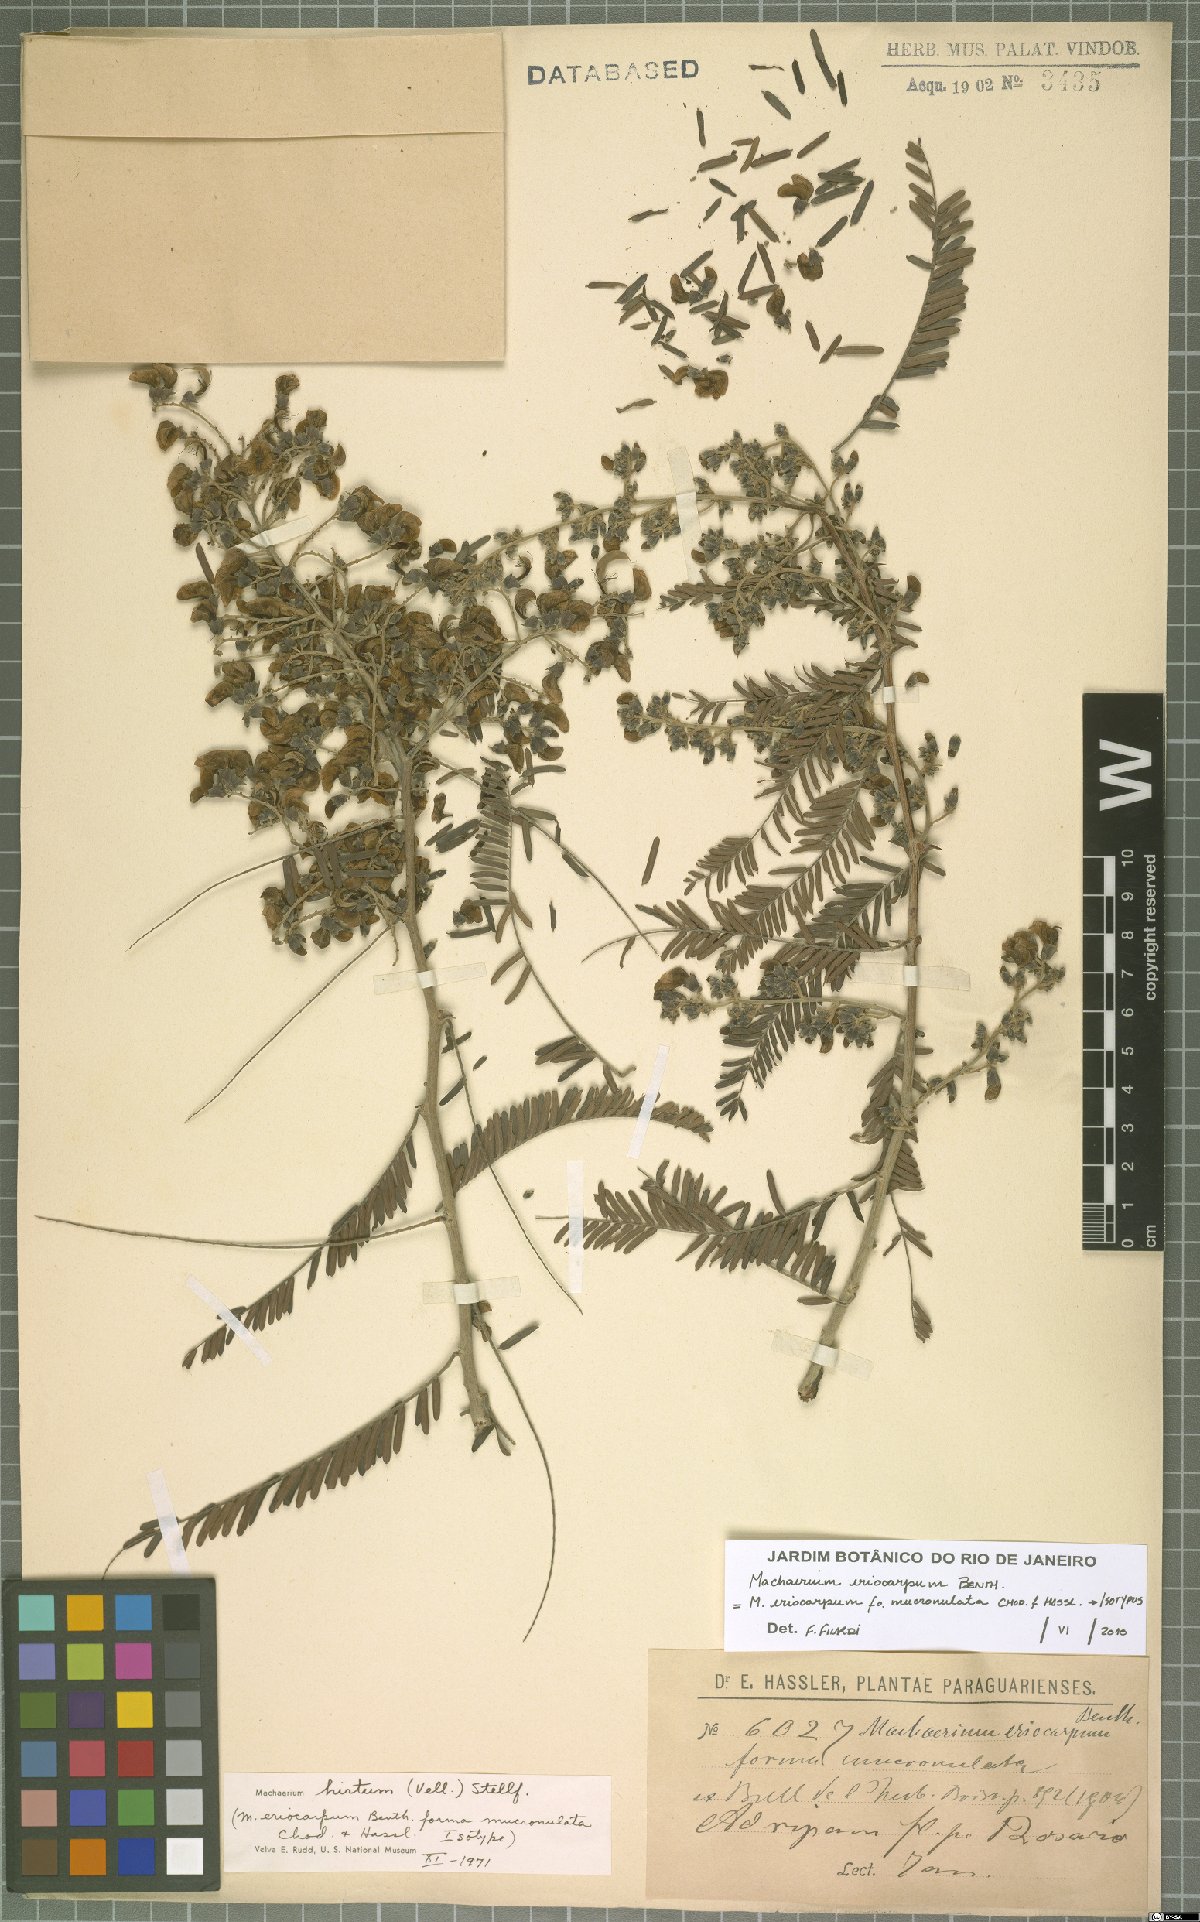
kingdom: Plantae
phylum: Tracheophyta
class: Magnoliopsida
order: Fabales
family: Fabaceae
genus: Machaerium
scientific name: Machaerium eriocarpum
